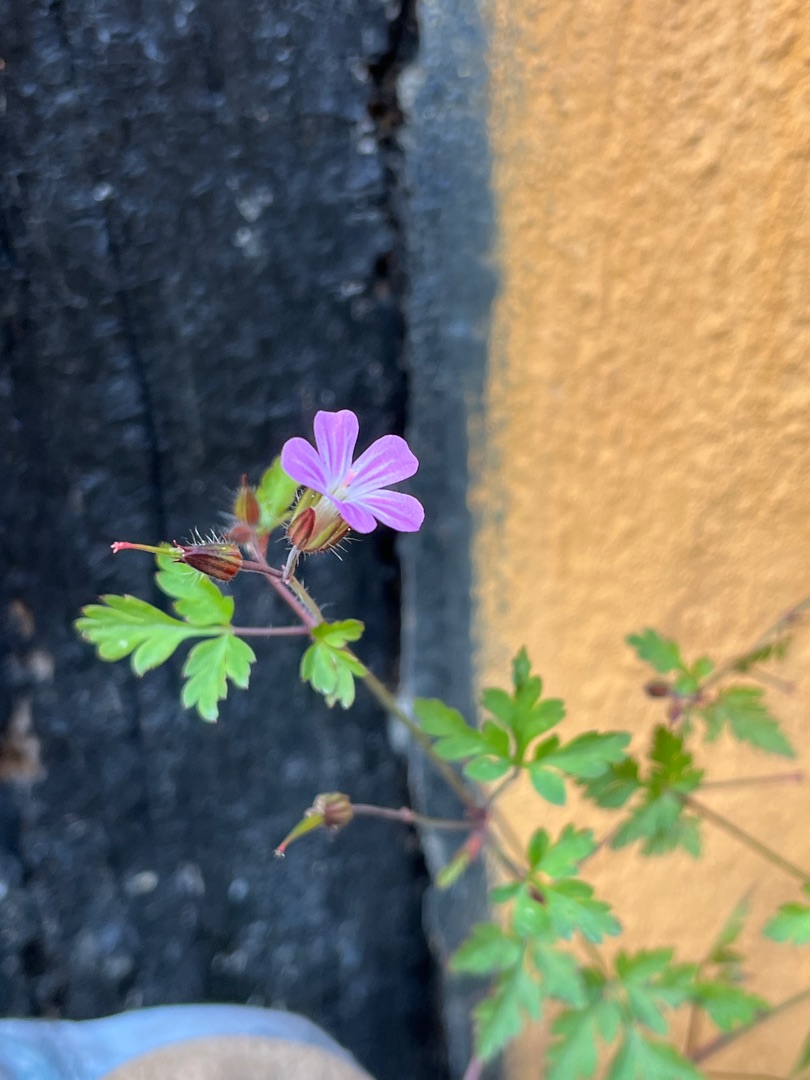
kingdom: Plantae
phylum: Tracheophyta
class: Magnoliopsida
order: Geraniales
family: Geraniaceae
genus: Geranium
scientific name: Geranium robertianum
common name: Stinkende storkenæb
